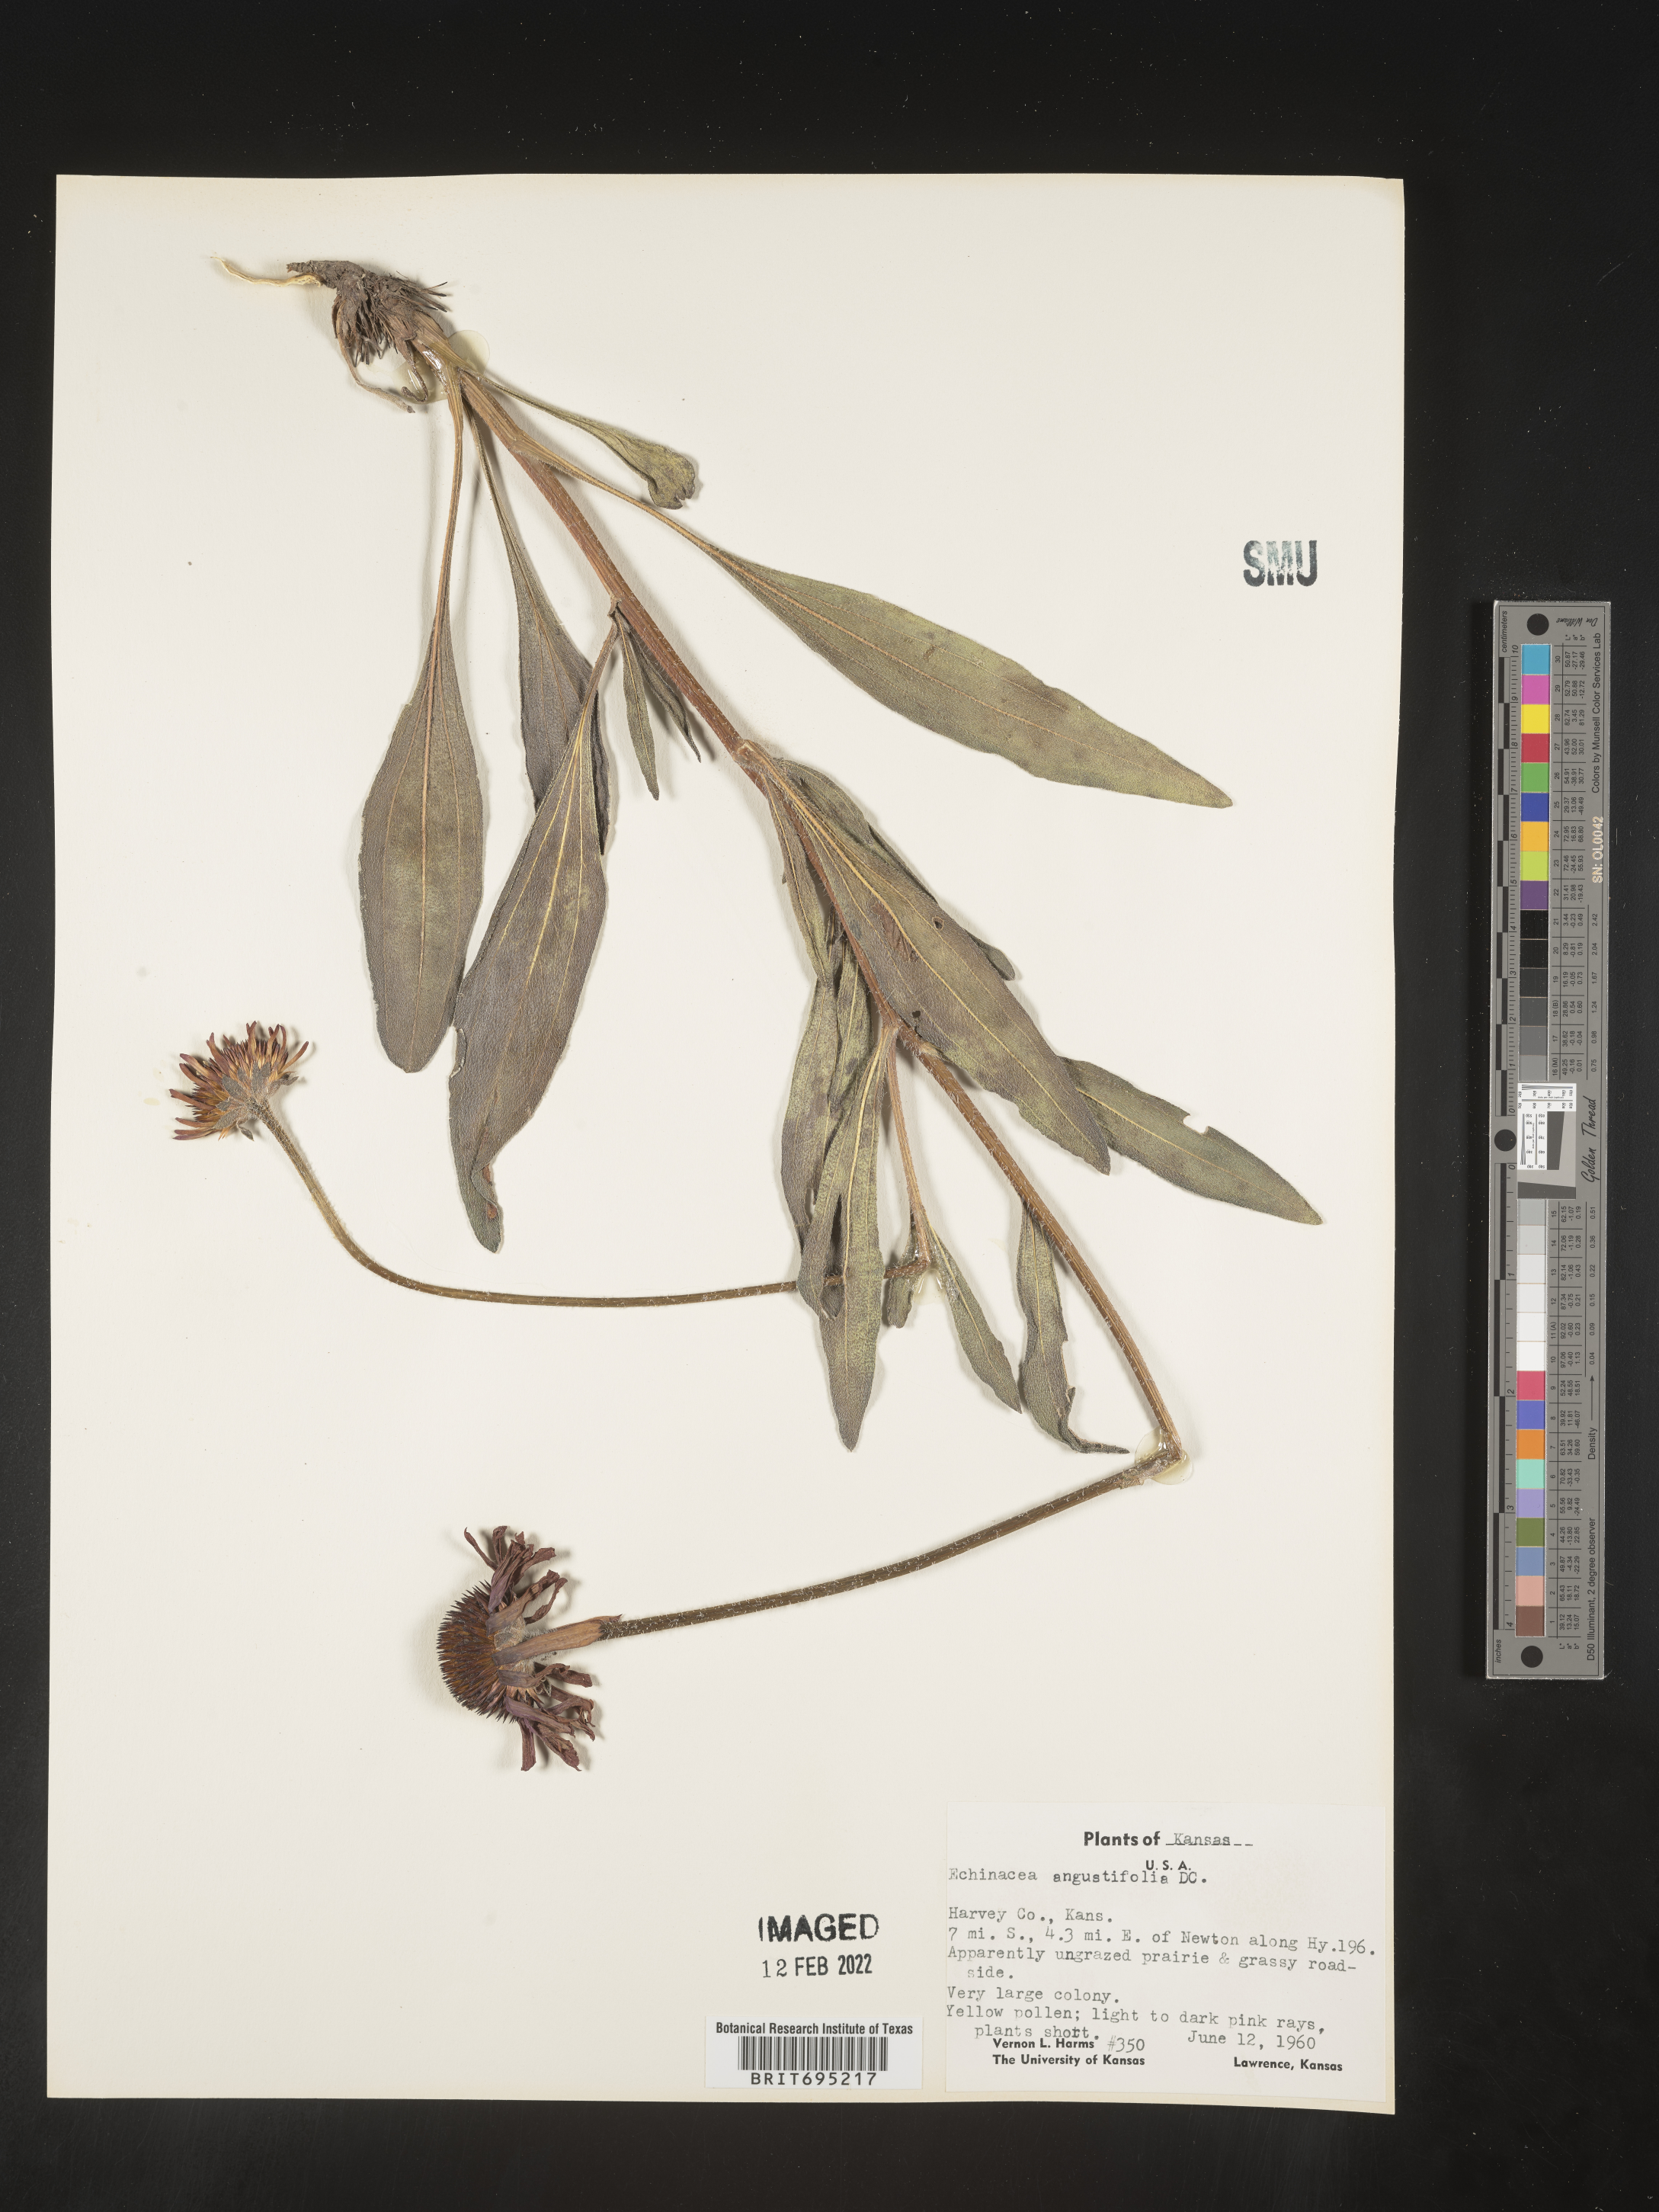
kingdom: Plantae
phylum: Tracheophyta
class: Magnoliopsida
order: Asterales
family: Asteraceae
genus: Echinacea
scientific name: Echinacea angustifolia
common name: Black-sampson echinacea
